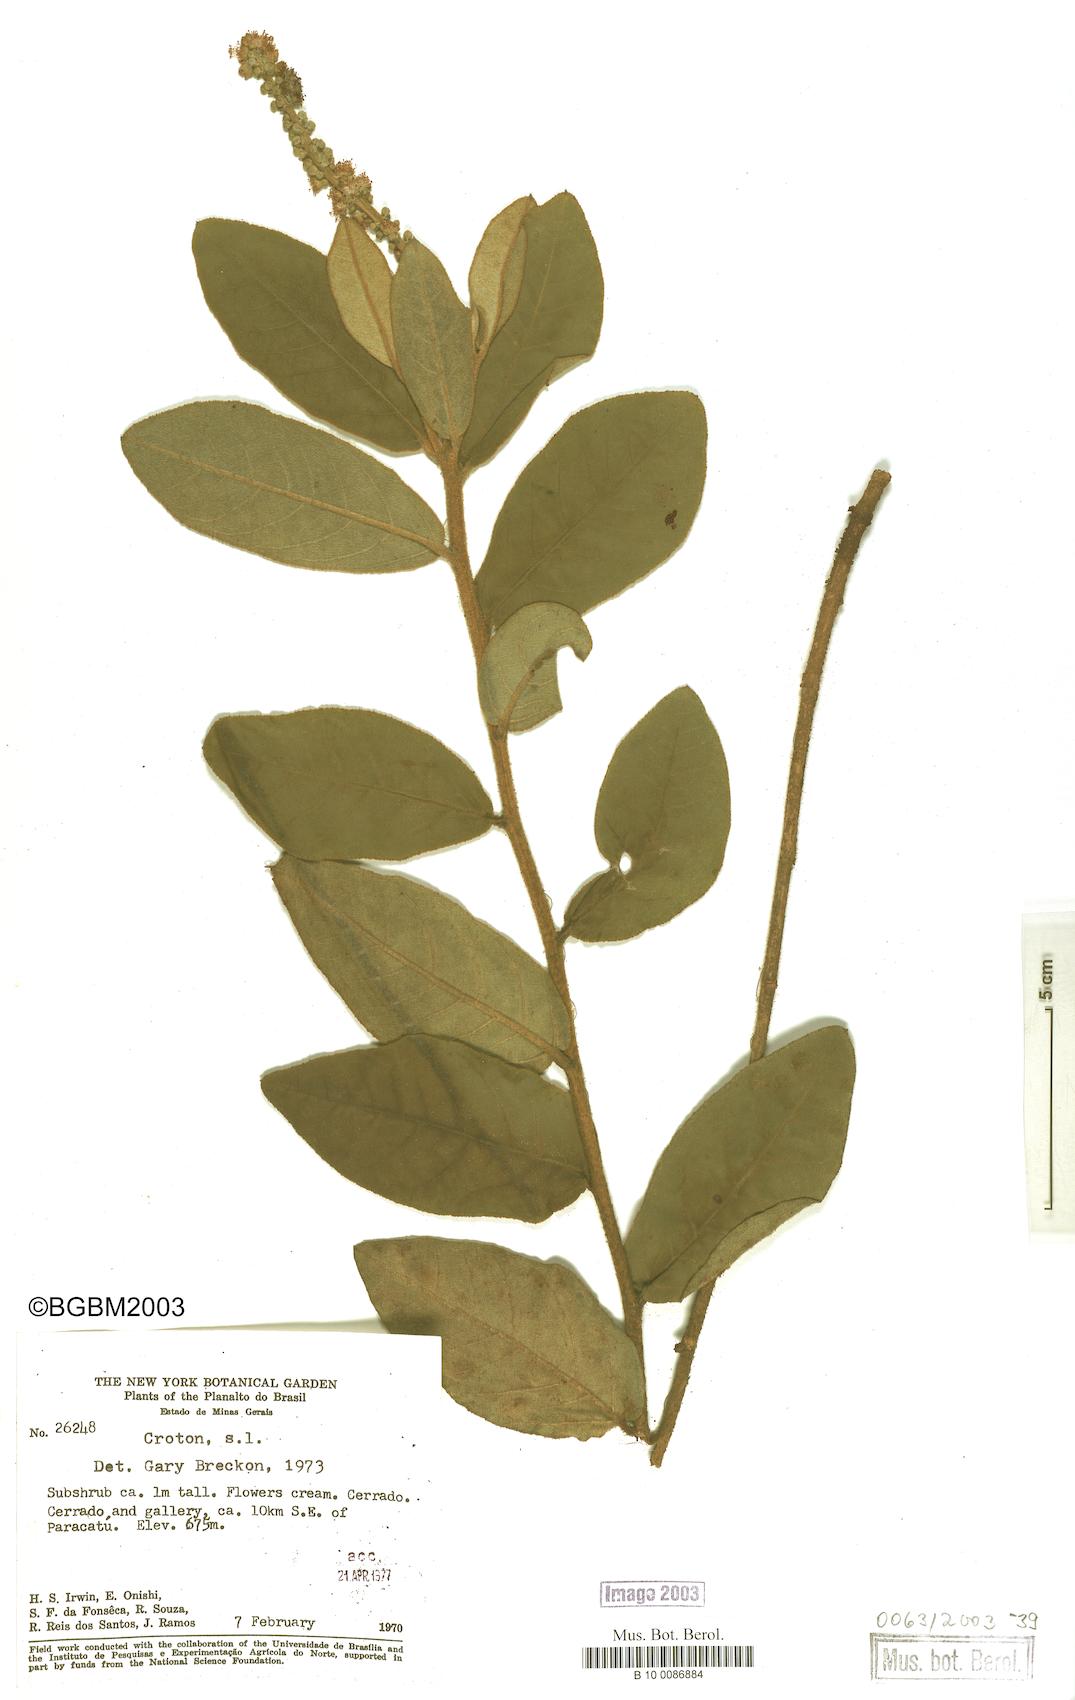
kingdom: Plantae
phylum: Tracheophyta
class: Magnoliopsida
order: Malpighiales
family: Euphorbiaceae
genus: Croton
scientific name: Croton
